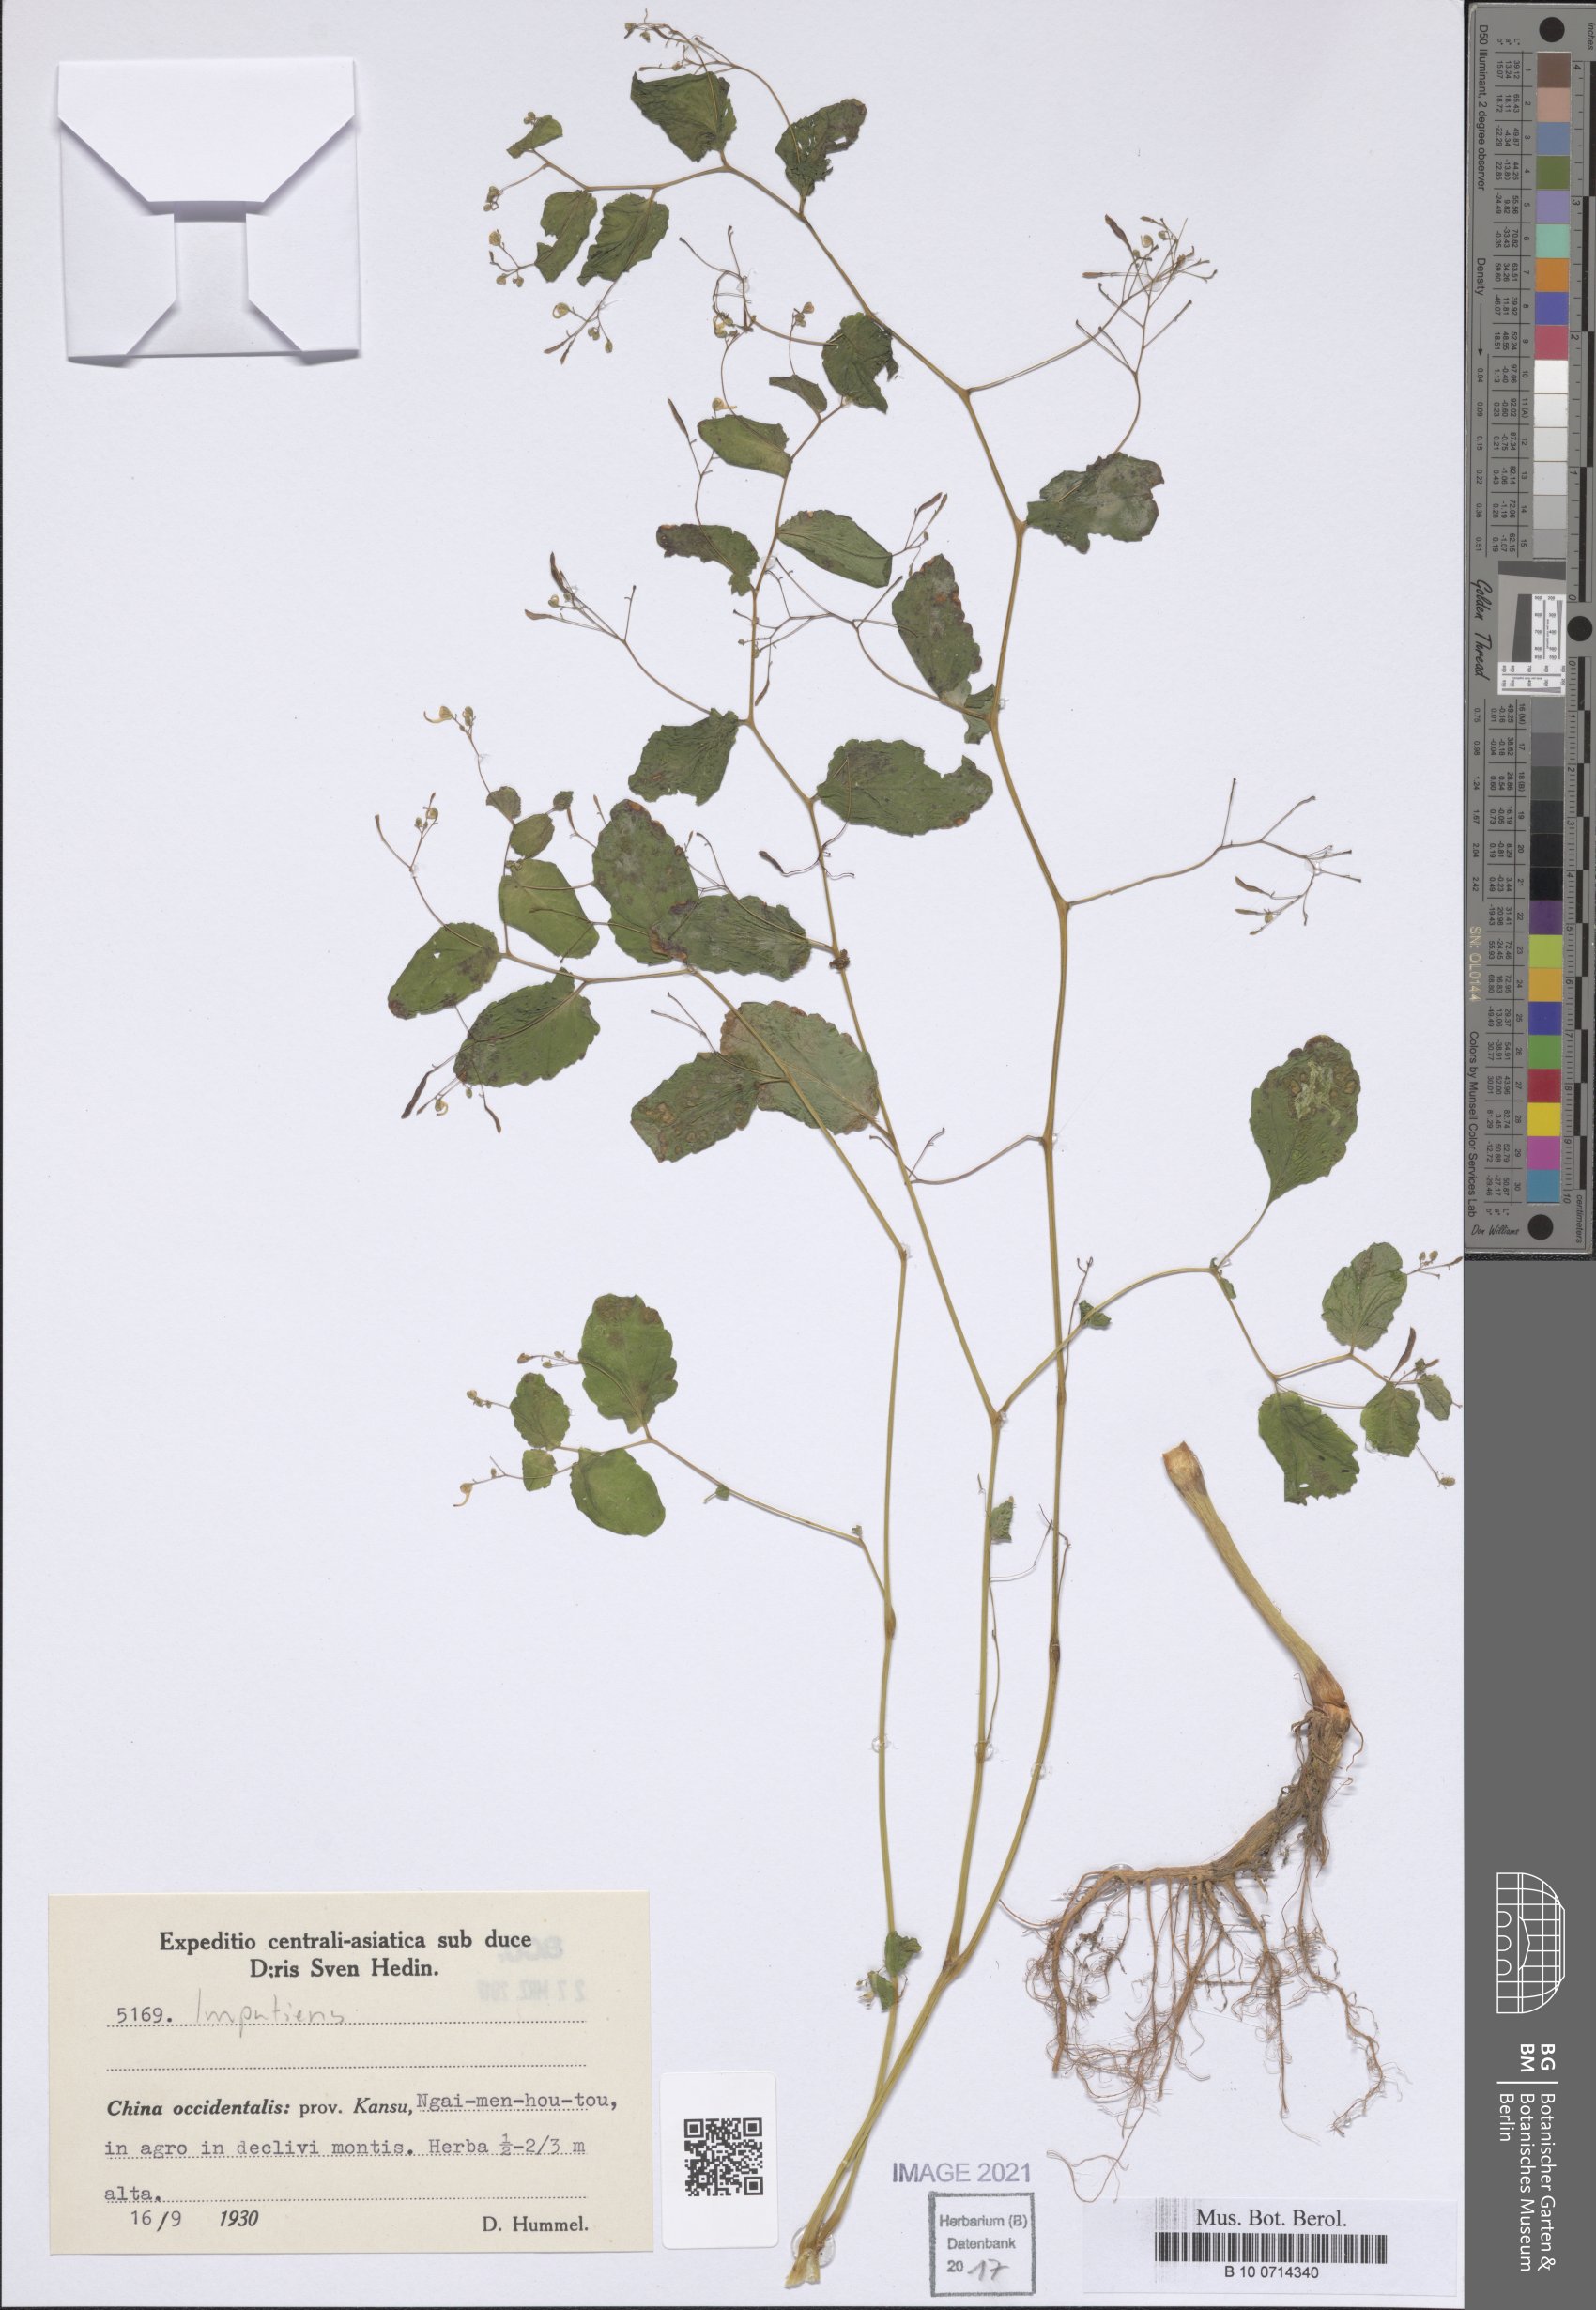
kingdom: Plantae
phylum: Tracheophyta
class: Magnoliopsida
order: Ericales
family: Balsaminaceae
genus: Impatiens
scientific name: Impatiens
